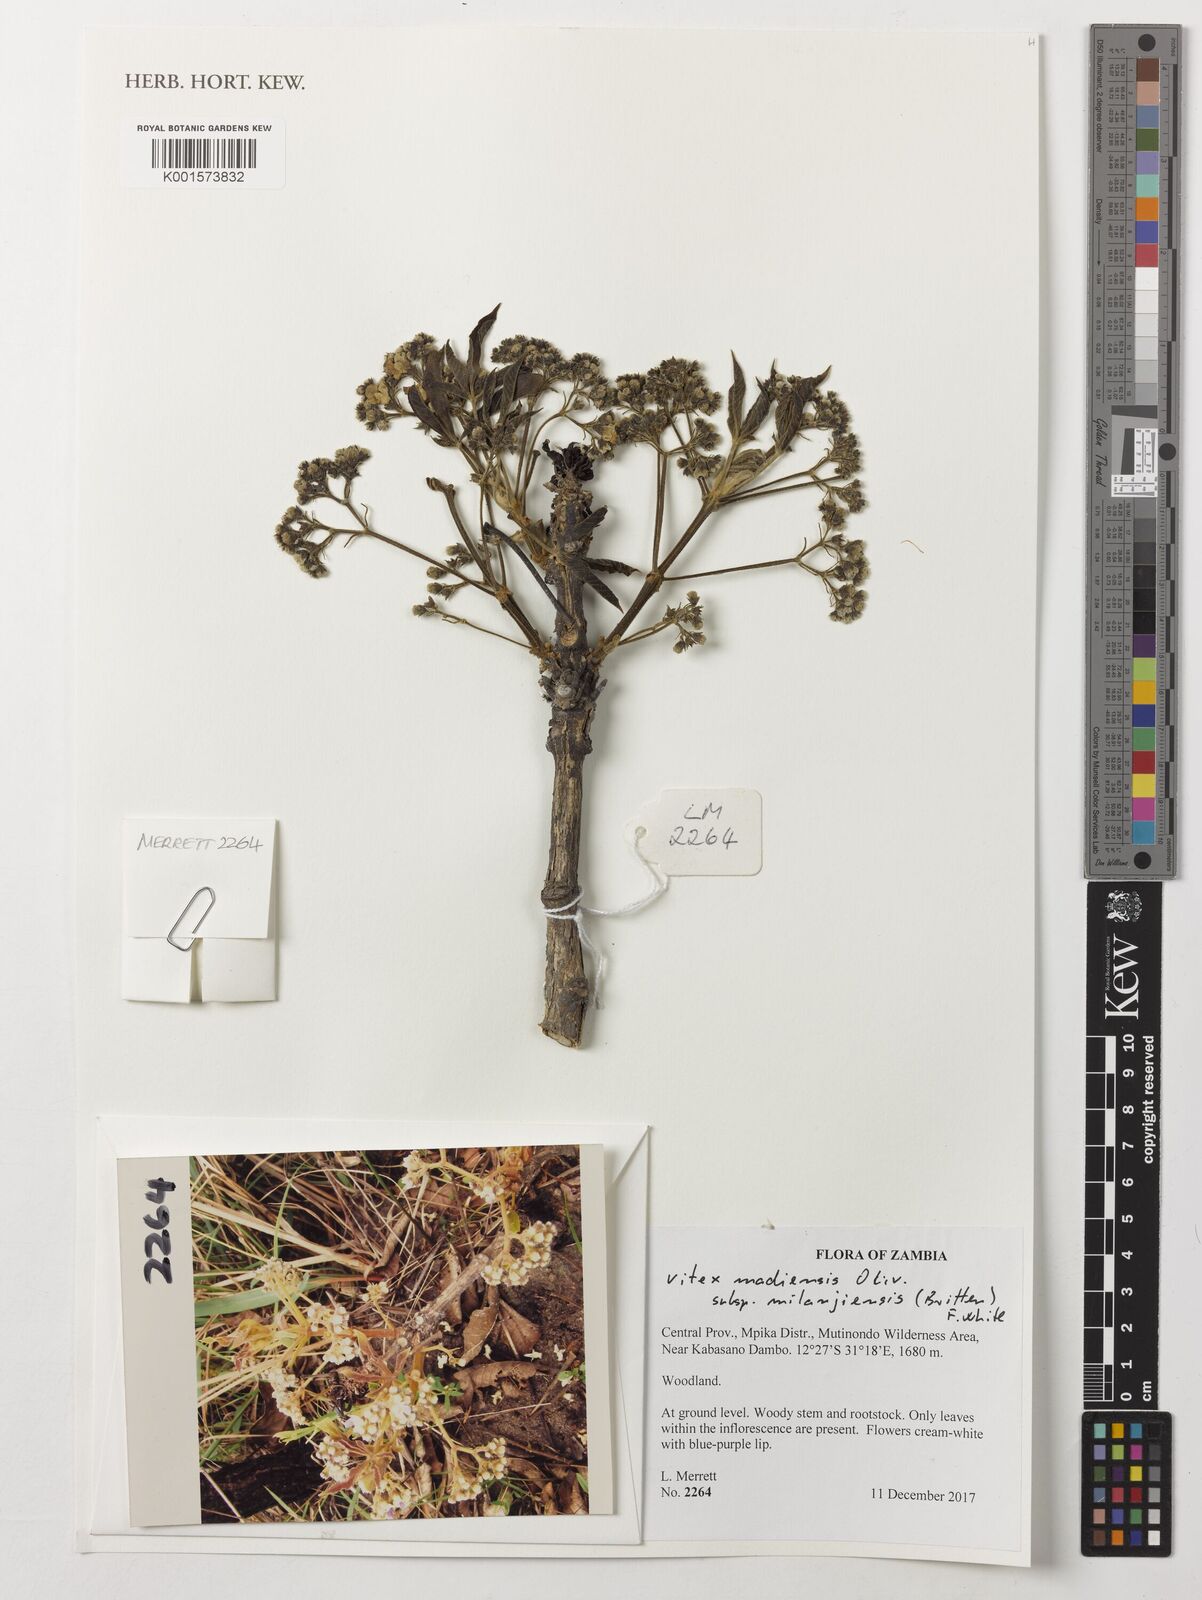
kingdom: Plantae
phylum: Tracheophyta
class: Magnoliopsida
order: Lamiales
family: Lamiaceae
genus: Vitex
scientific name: Vitex madiensis
